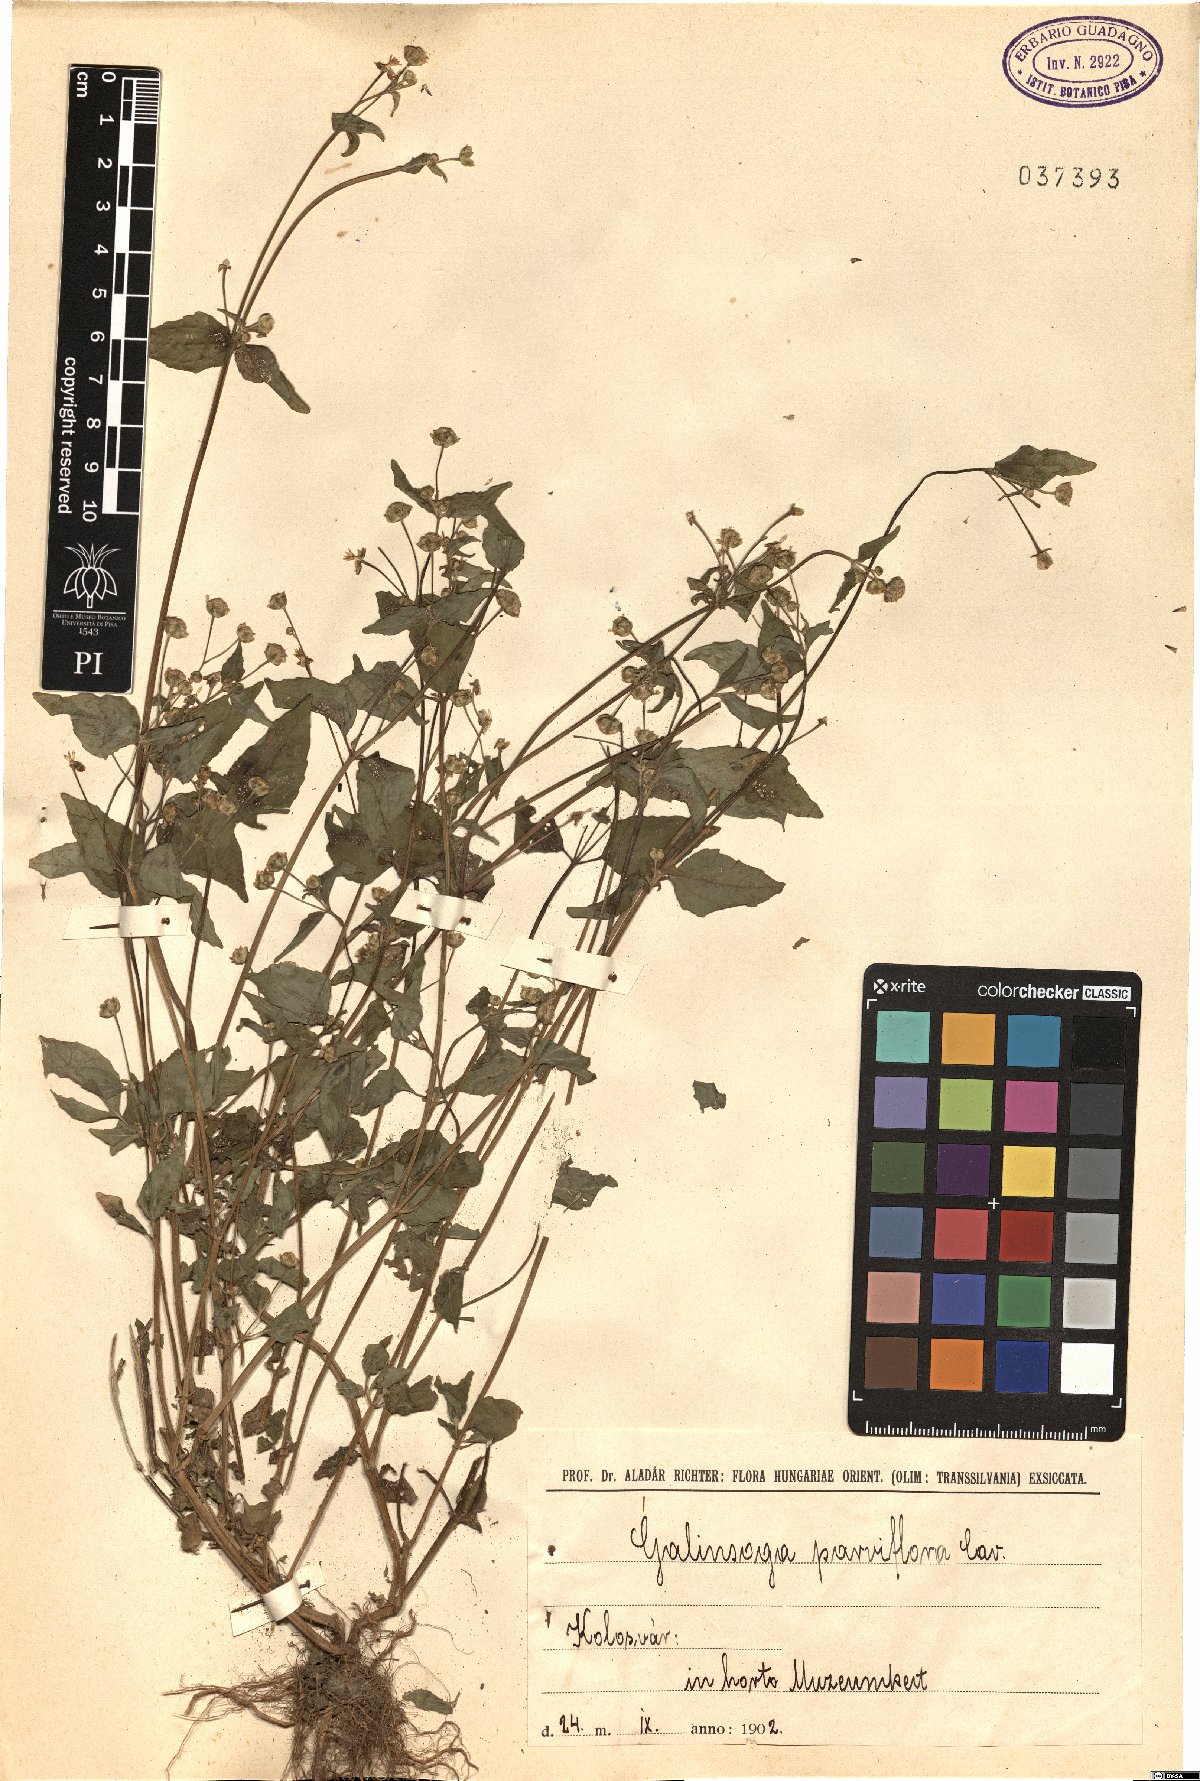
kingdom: Plantae
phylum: Tracheophyta
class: Magnoliopsida
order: Asterales
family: Asteraceae
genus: Galinsoga
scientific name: Galinsoga parviflora
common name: Gallant soldier
